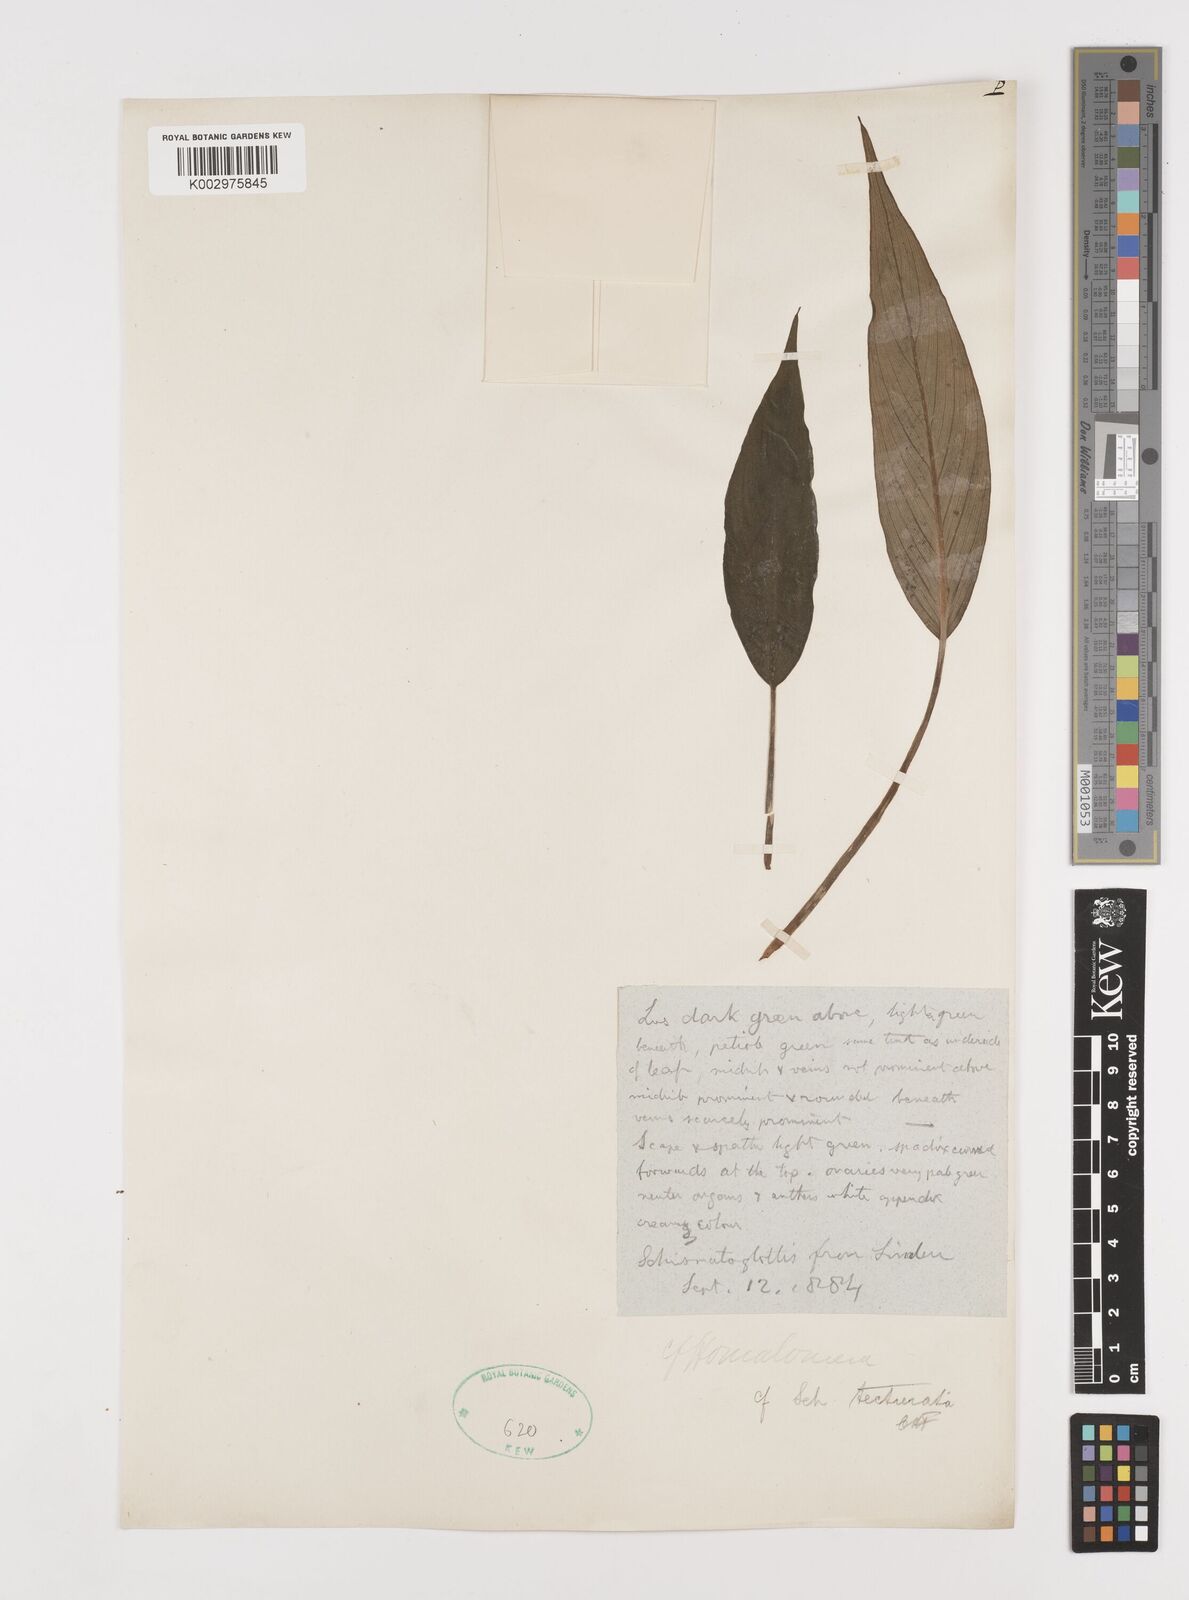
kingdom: Plantae
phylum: Tracheophyta
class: Liliopsida
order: Alismatales
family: Araceae
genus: Homalomena
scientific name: Homalomena
